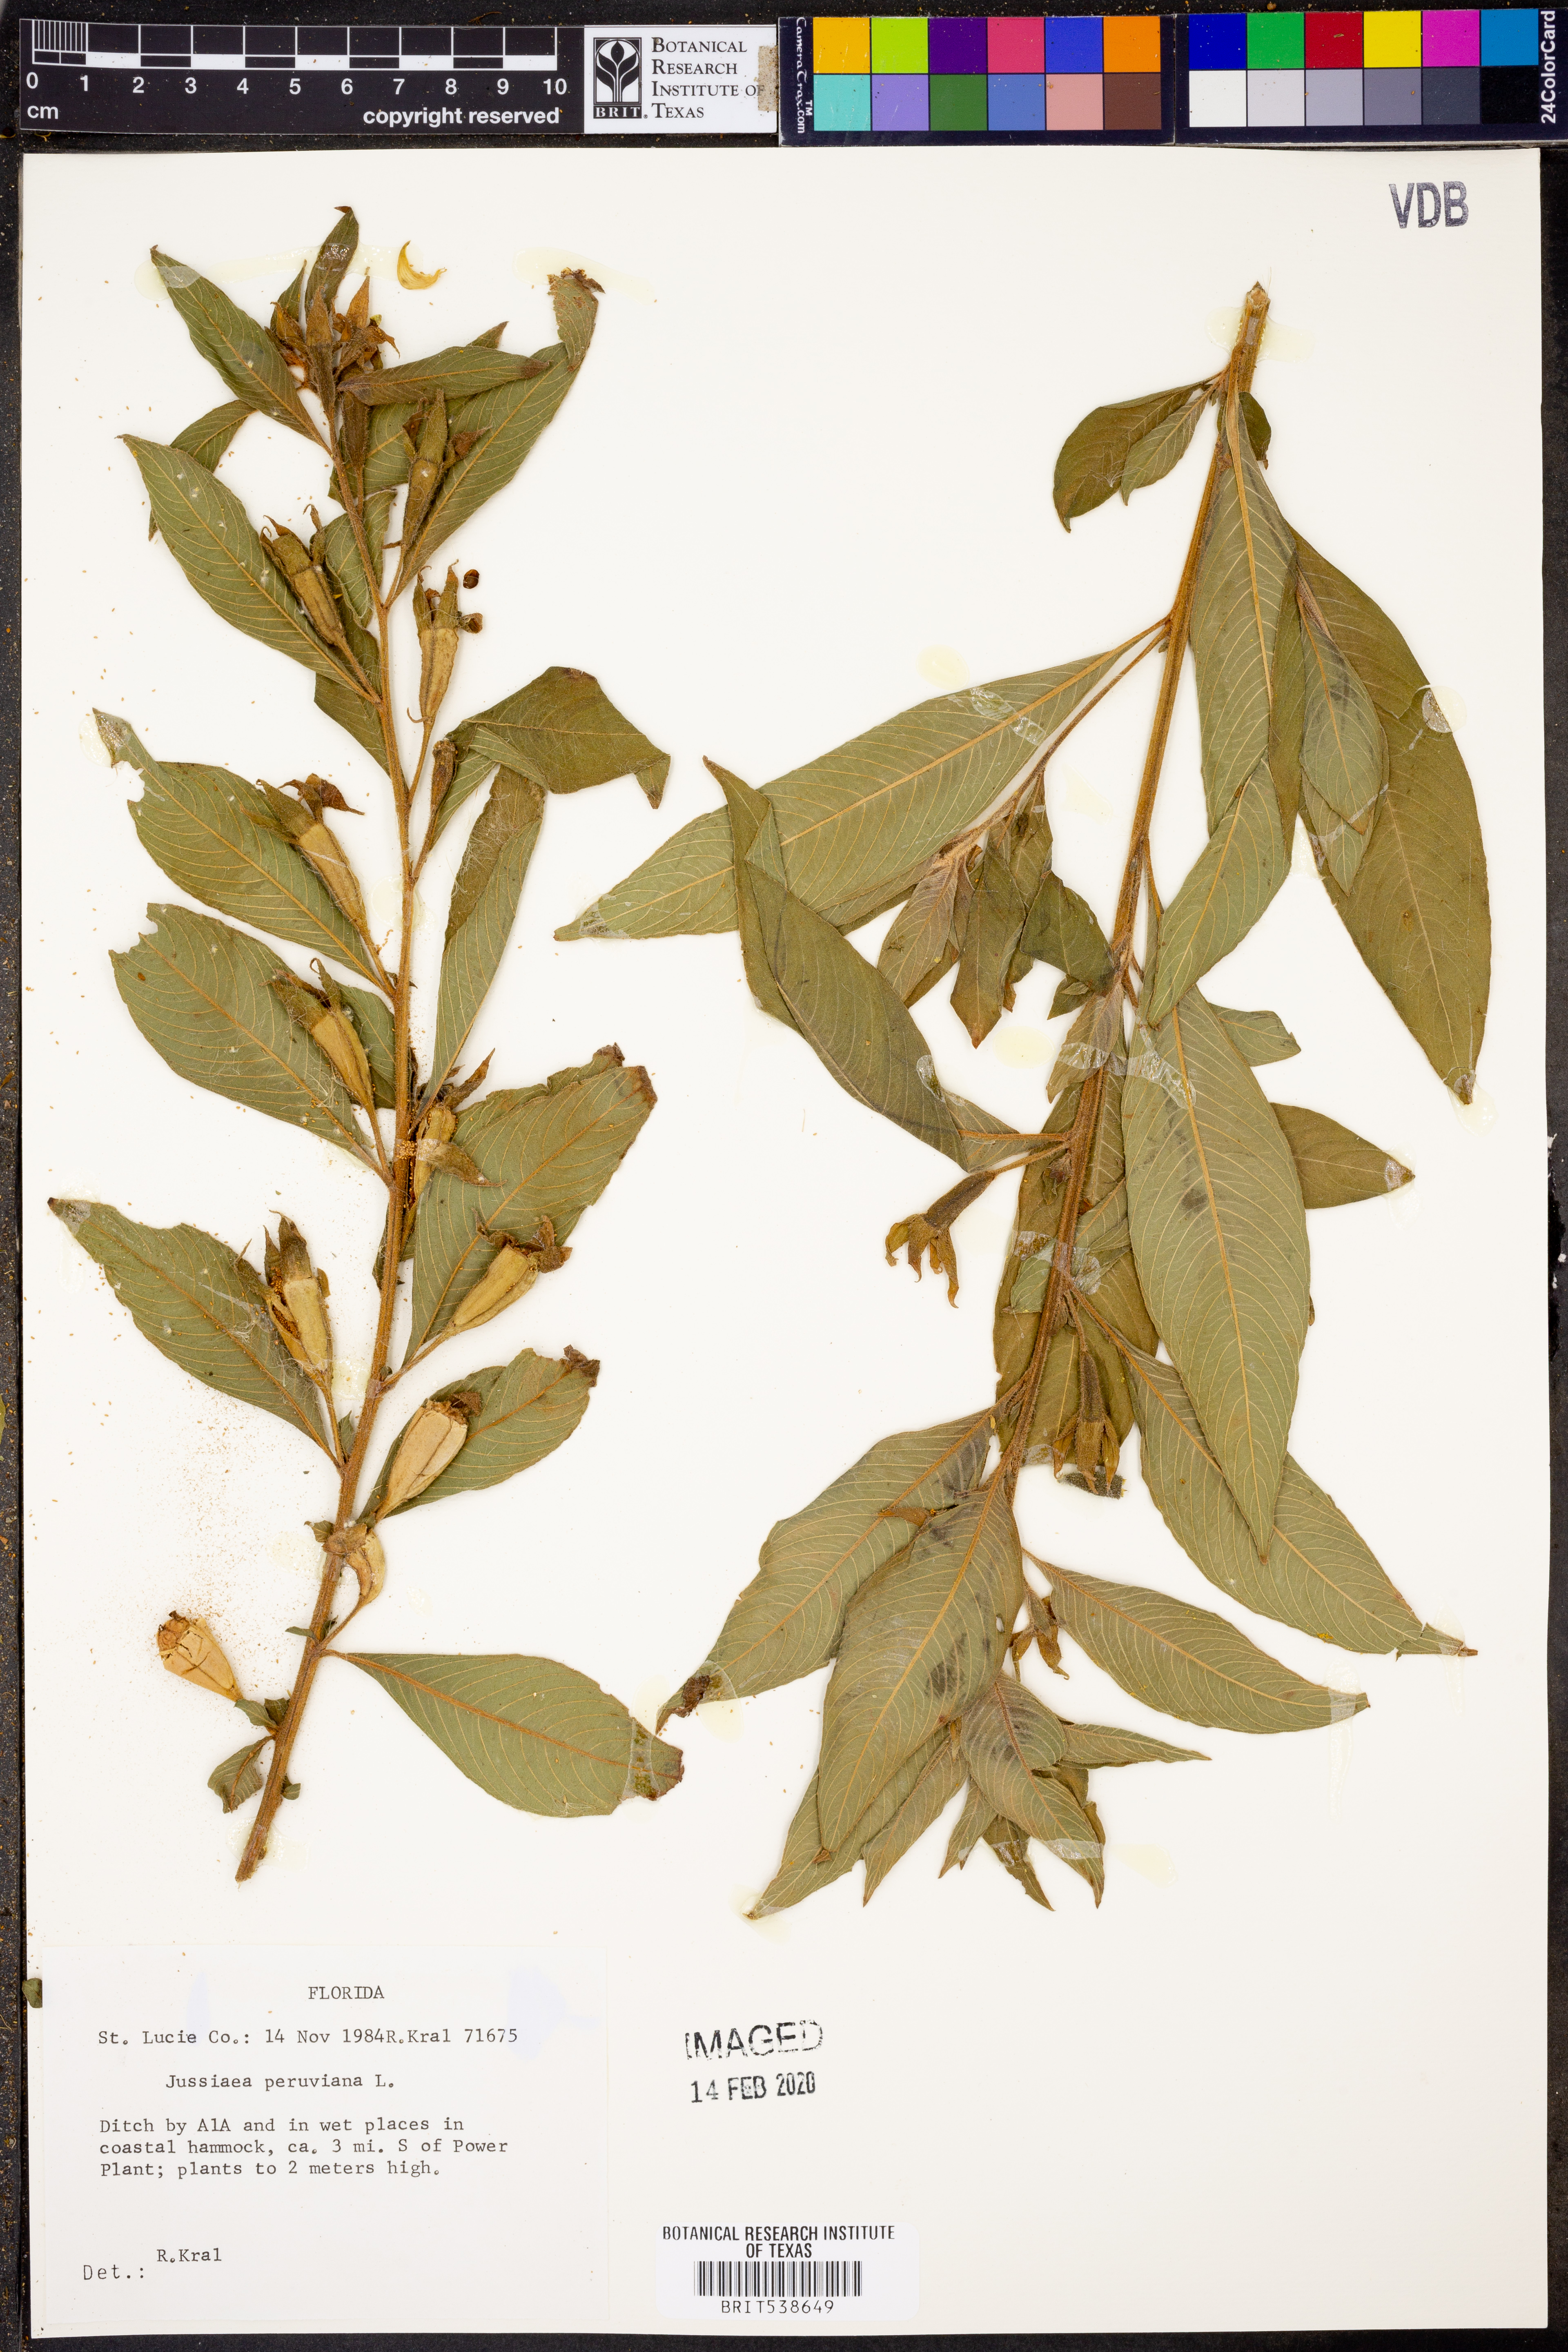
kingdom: Plantae
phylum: Tracheophyta
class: Magnoliopsida
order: Myrtales
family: Onagraceae
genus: Ludwigia
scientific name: Ludwigia peruviana
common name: Peruvian primrose-willow
